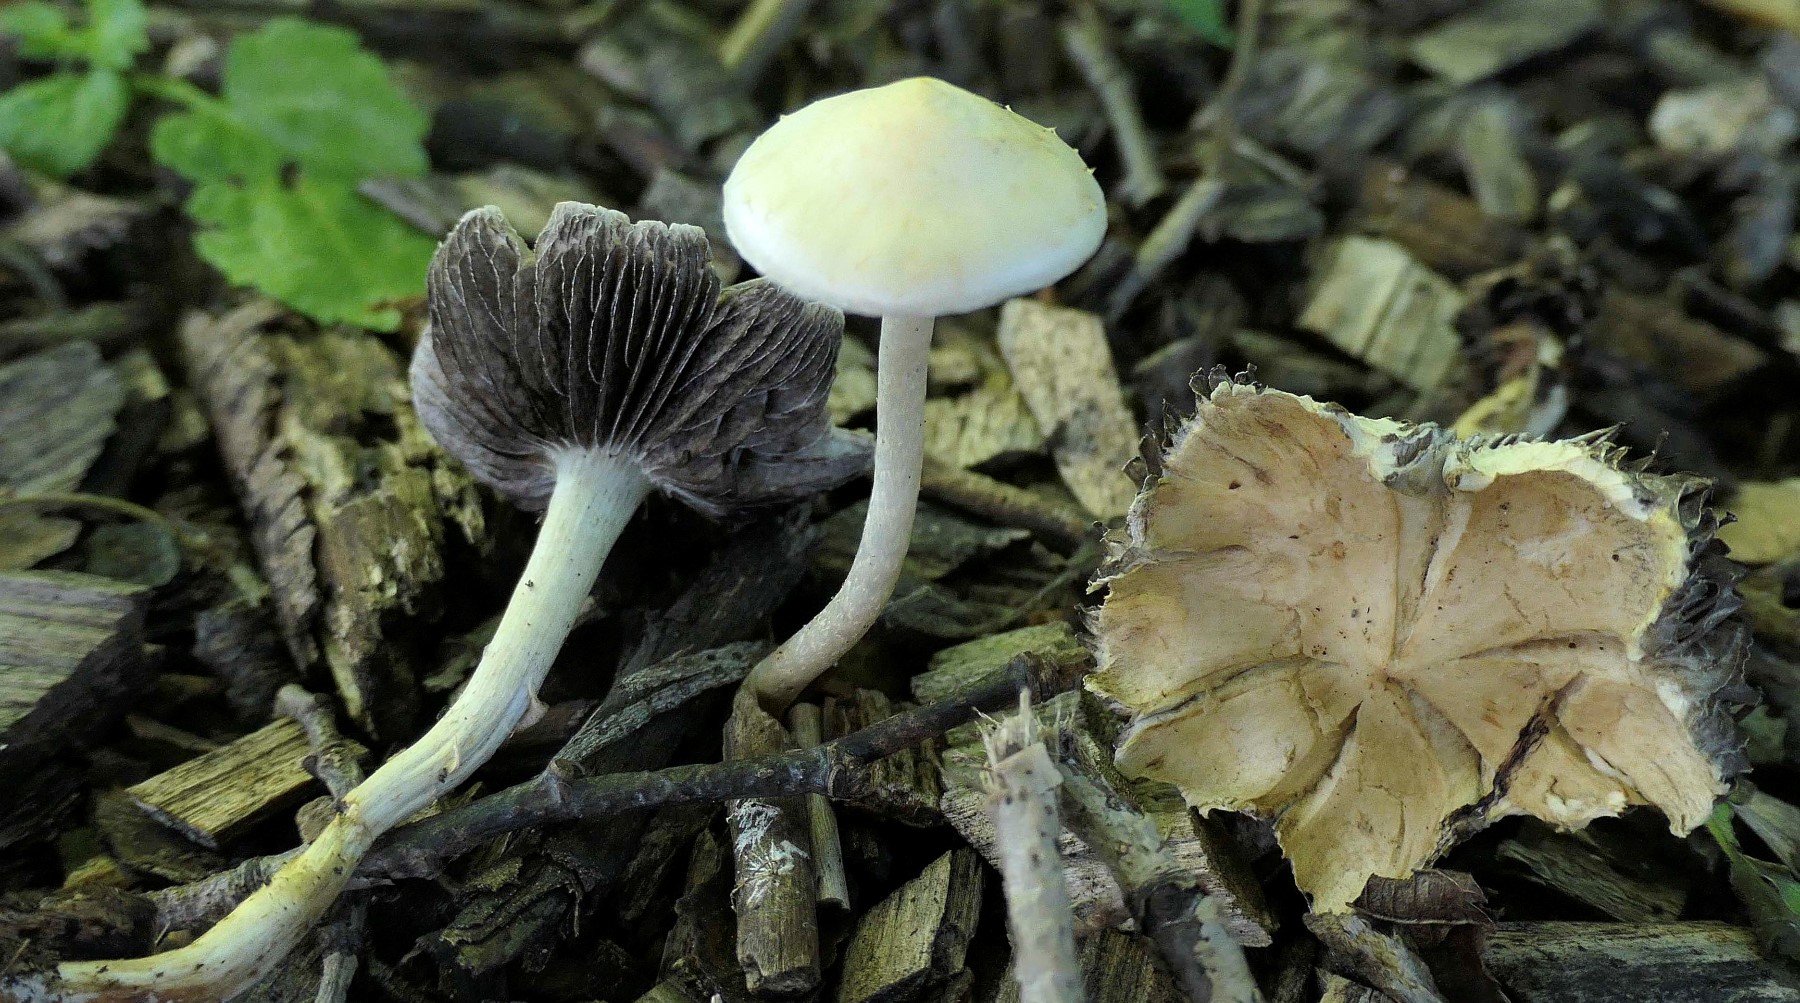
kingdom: Fungi
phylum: Basidiomycota
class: Agaricomycetes
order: Agaricales
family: Strophariaceae
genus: Leratiomyces
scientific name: Leratiomyces percevalii
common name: træflis-bredblad
